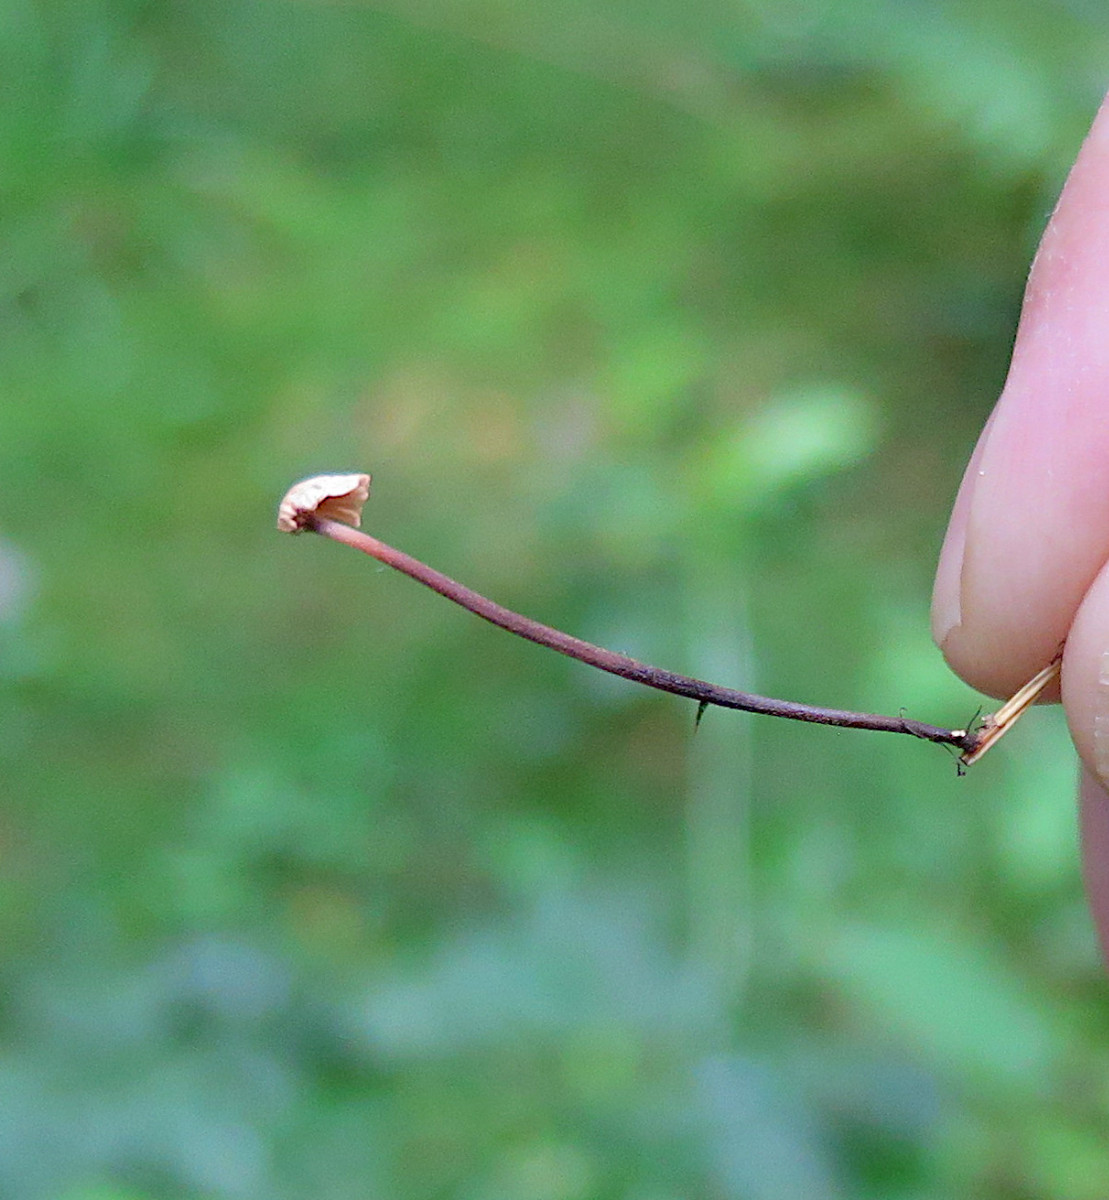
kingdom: Fungi
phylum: Basidiomycota
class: Agaricomycetes
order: Agaricales
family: Omphalotaceae
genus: Paragymnopus
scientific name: Paragymnopus perforans
